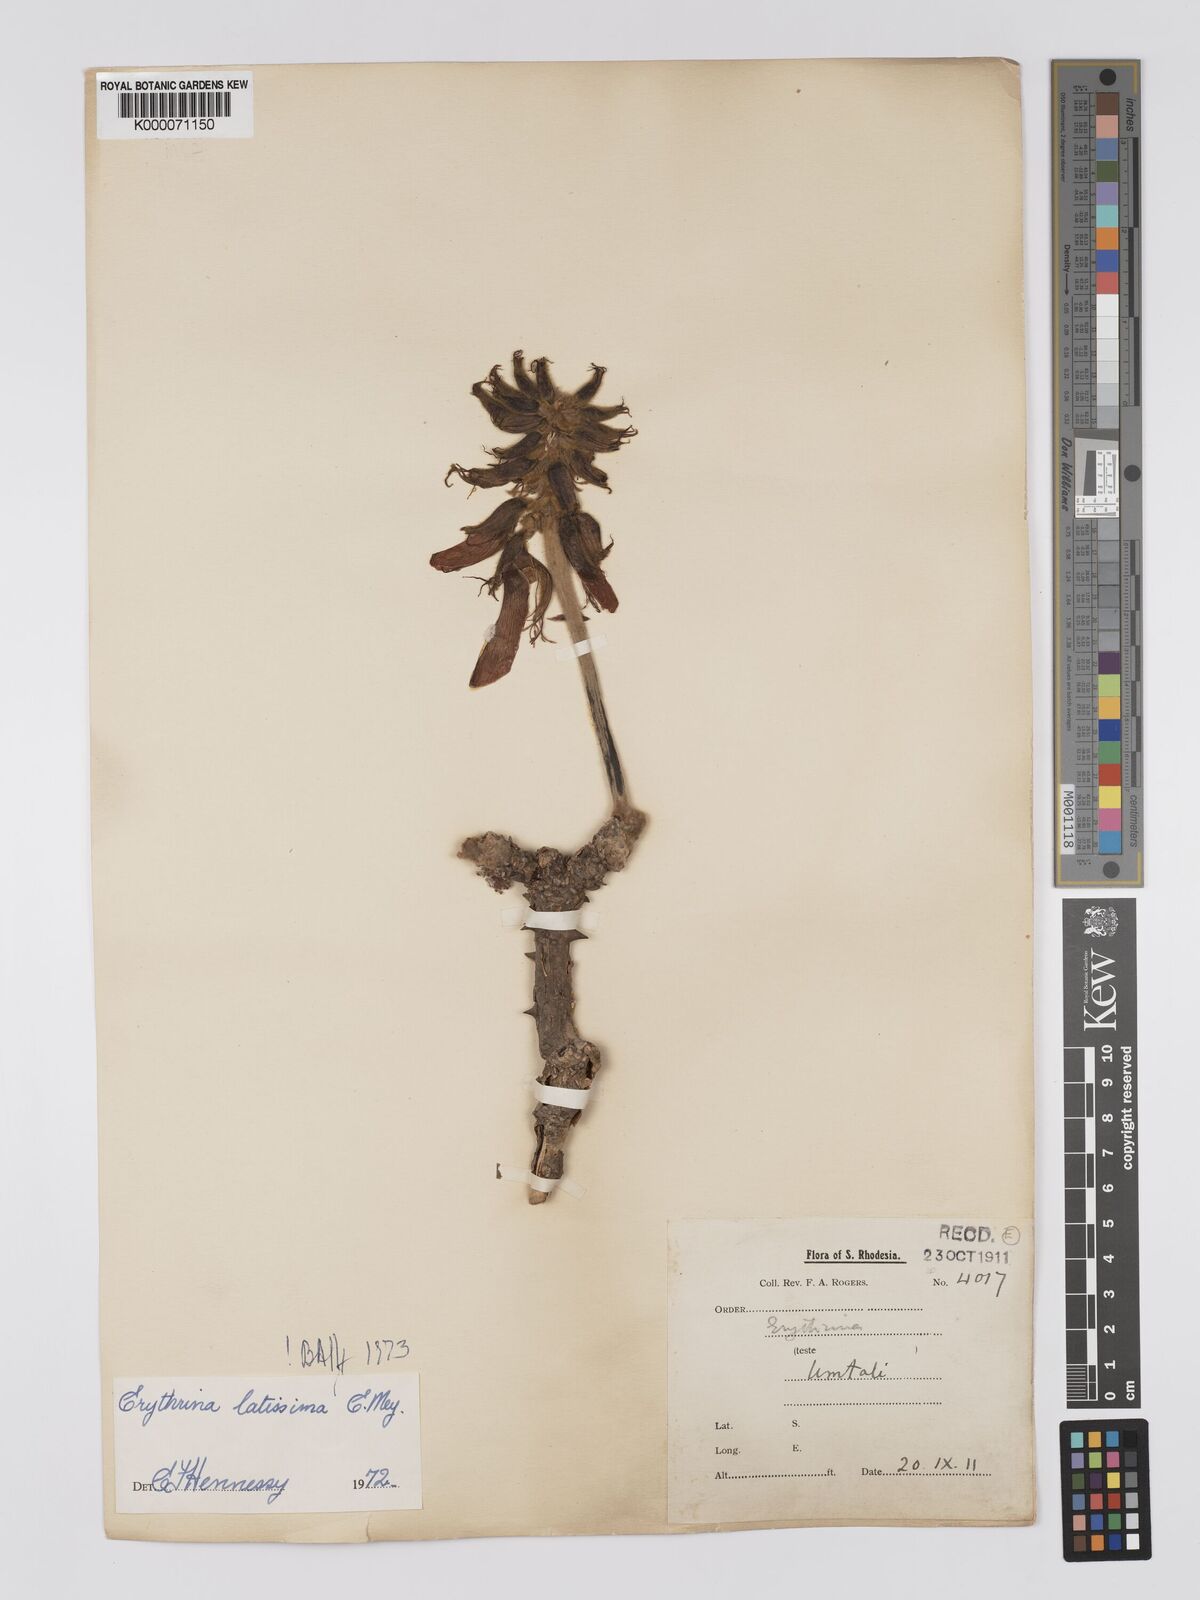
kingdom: Plantae
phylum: Tracheophyta
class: Magnoliopsida
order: Fabales
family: Fabaceae
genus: Erythrina
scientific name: Erythrina latissima
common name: Broad-leaved coral tree
